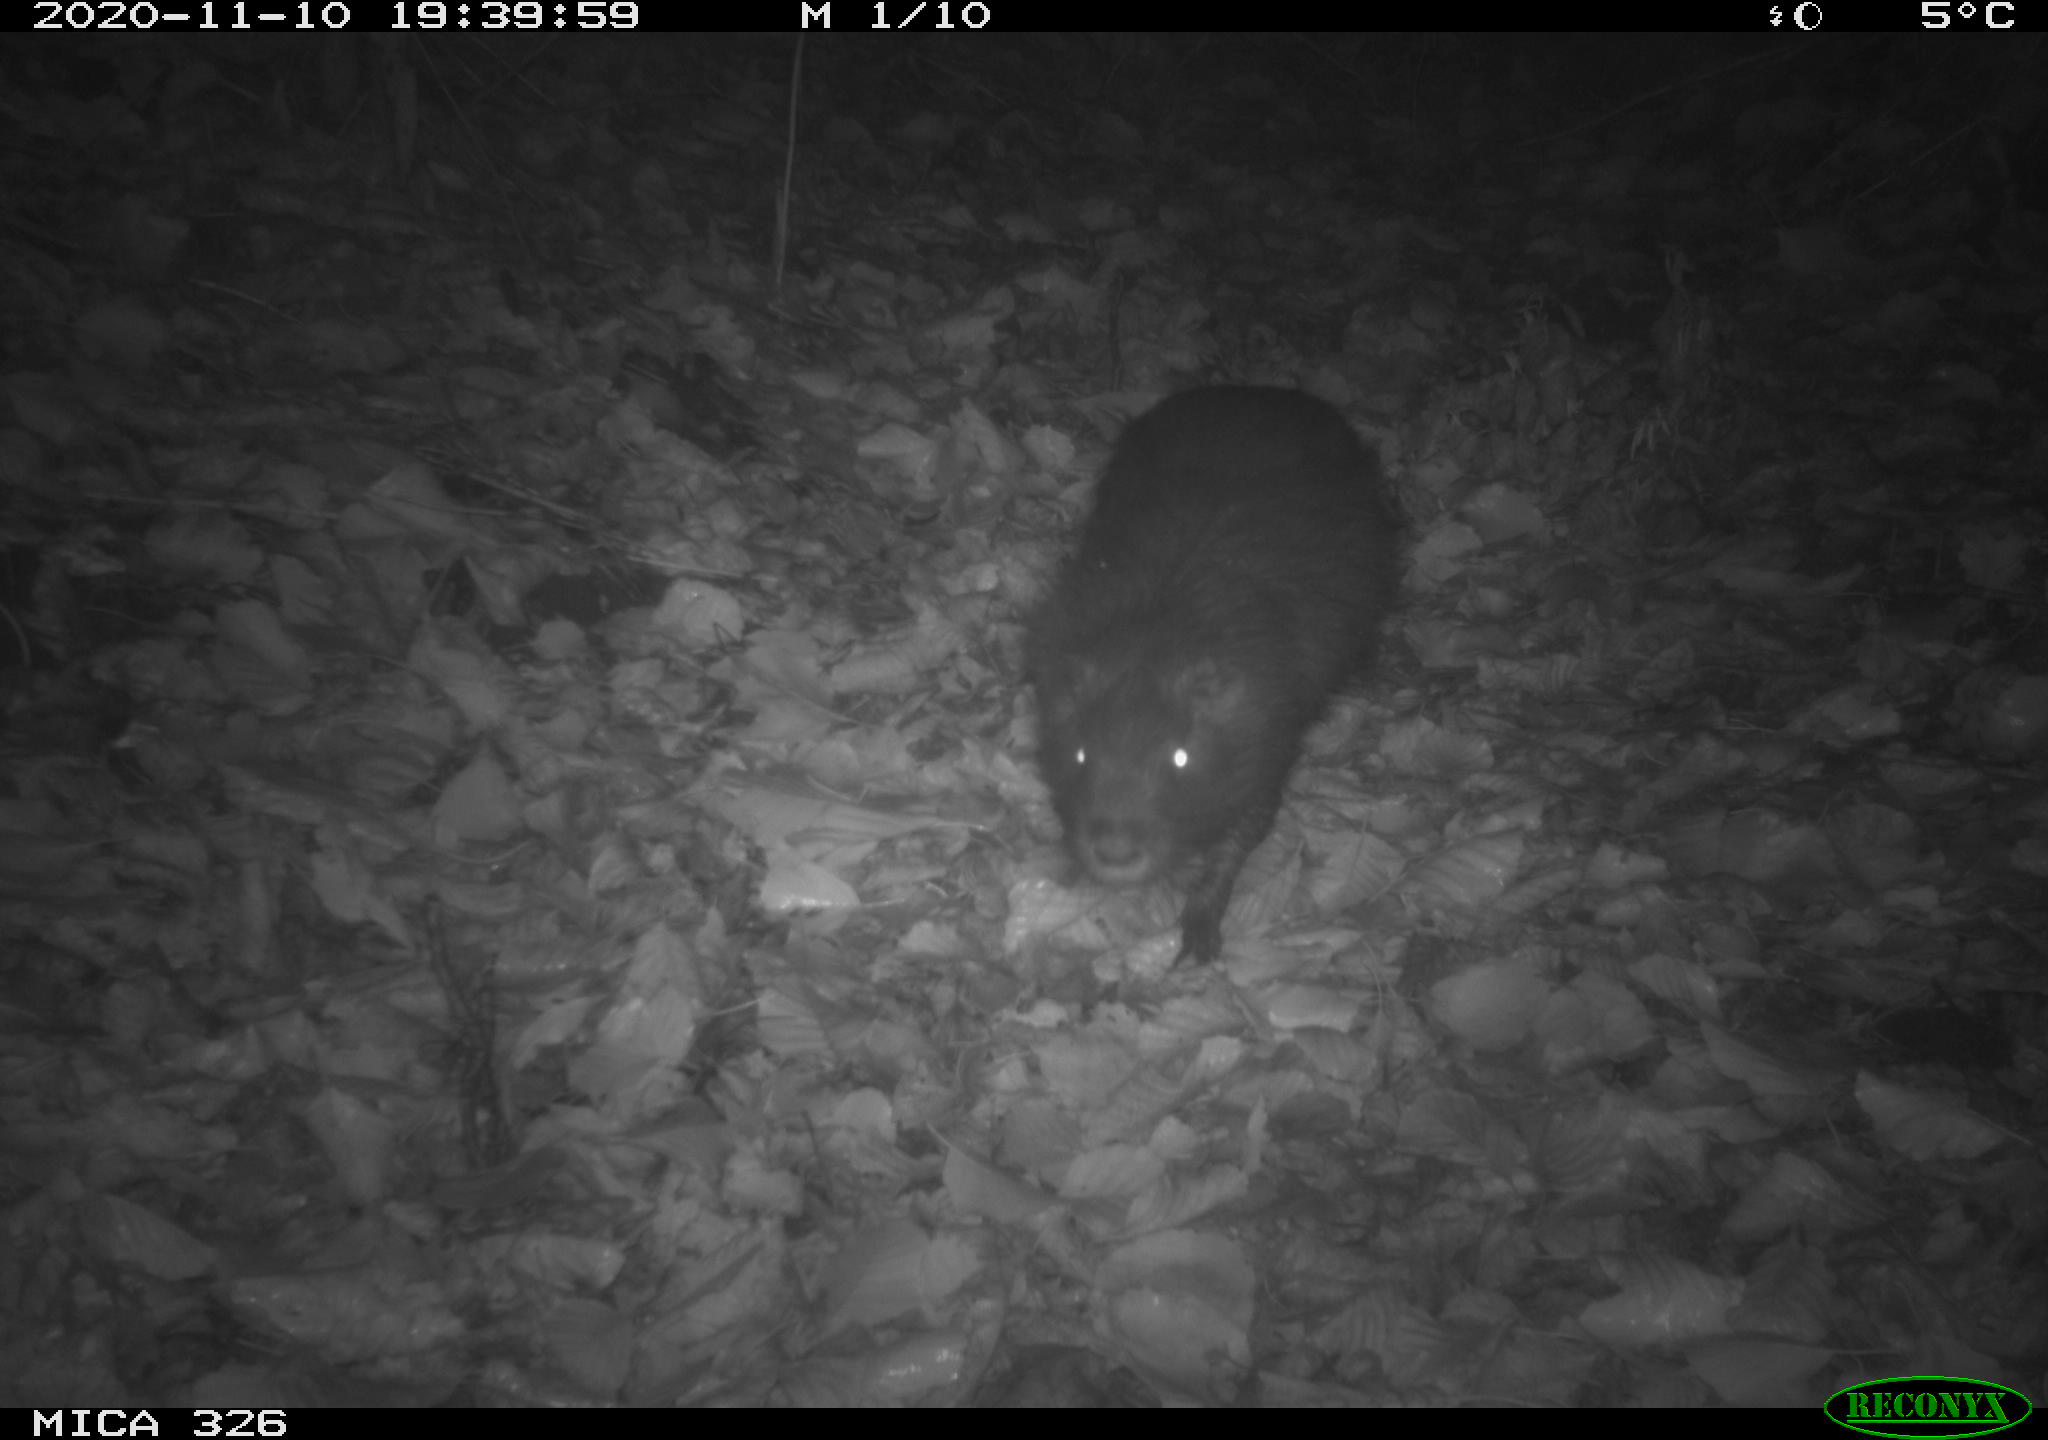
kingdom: Animalia
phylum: Chordata
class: Mammalia
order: Rodentia
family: Myocastoridae
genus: Myocastor
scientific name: Myocastor coypus
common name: Coypu
